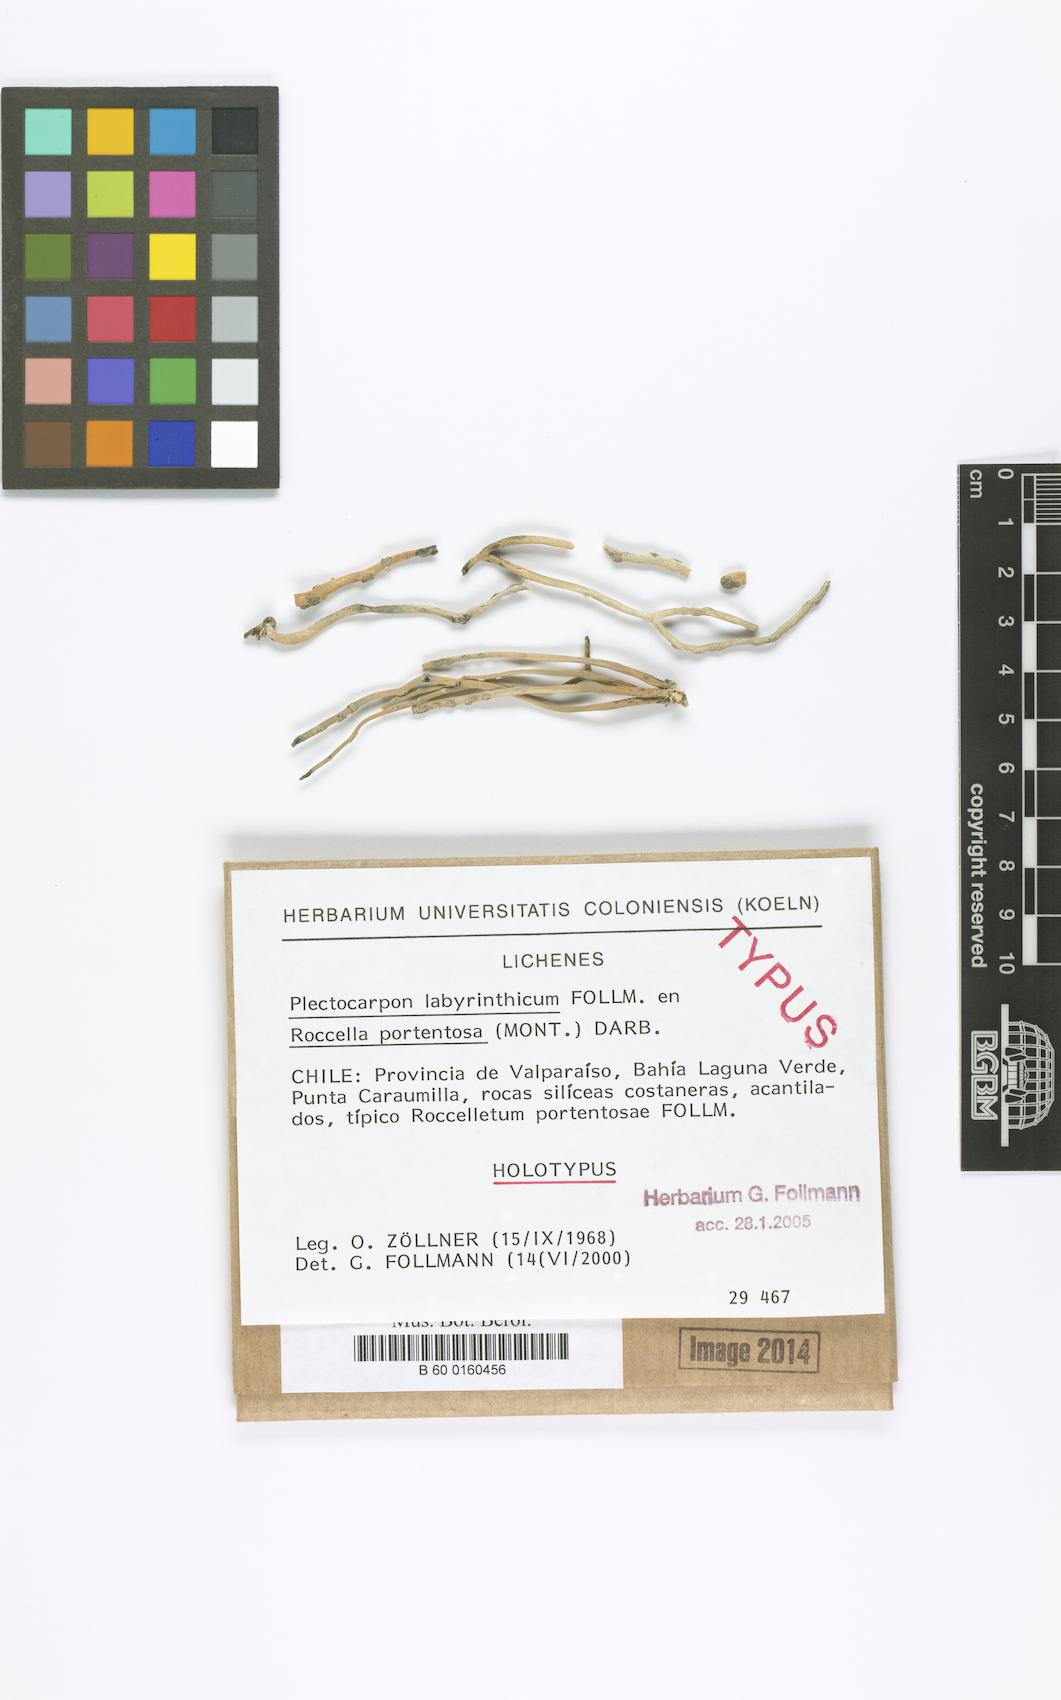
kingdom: Fungi
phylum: Ascomycota
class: Arthoniomycetes
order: Arthoniales
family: Roccellaceae
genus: Sigridea
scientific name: Sigridea labyrinthica
